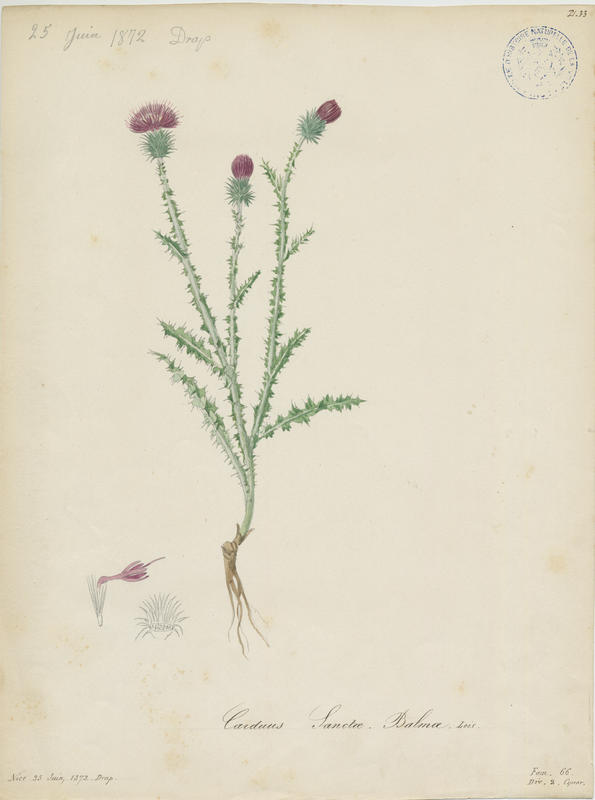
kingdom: Plantae
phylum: Tracheophyta
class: Magnoliopsida
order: Asterales
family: Asteraceae
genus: Carduus
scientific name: Carduus litigiosus
